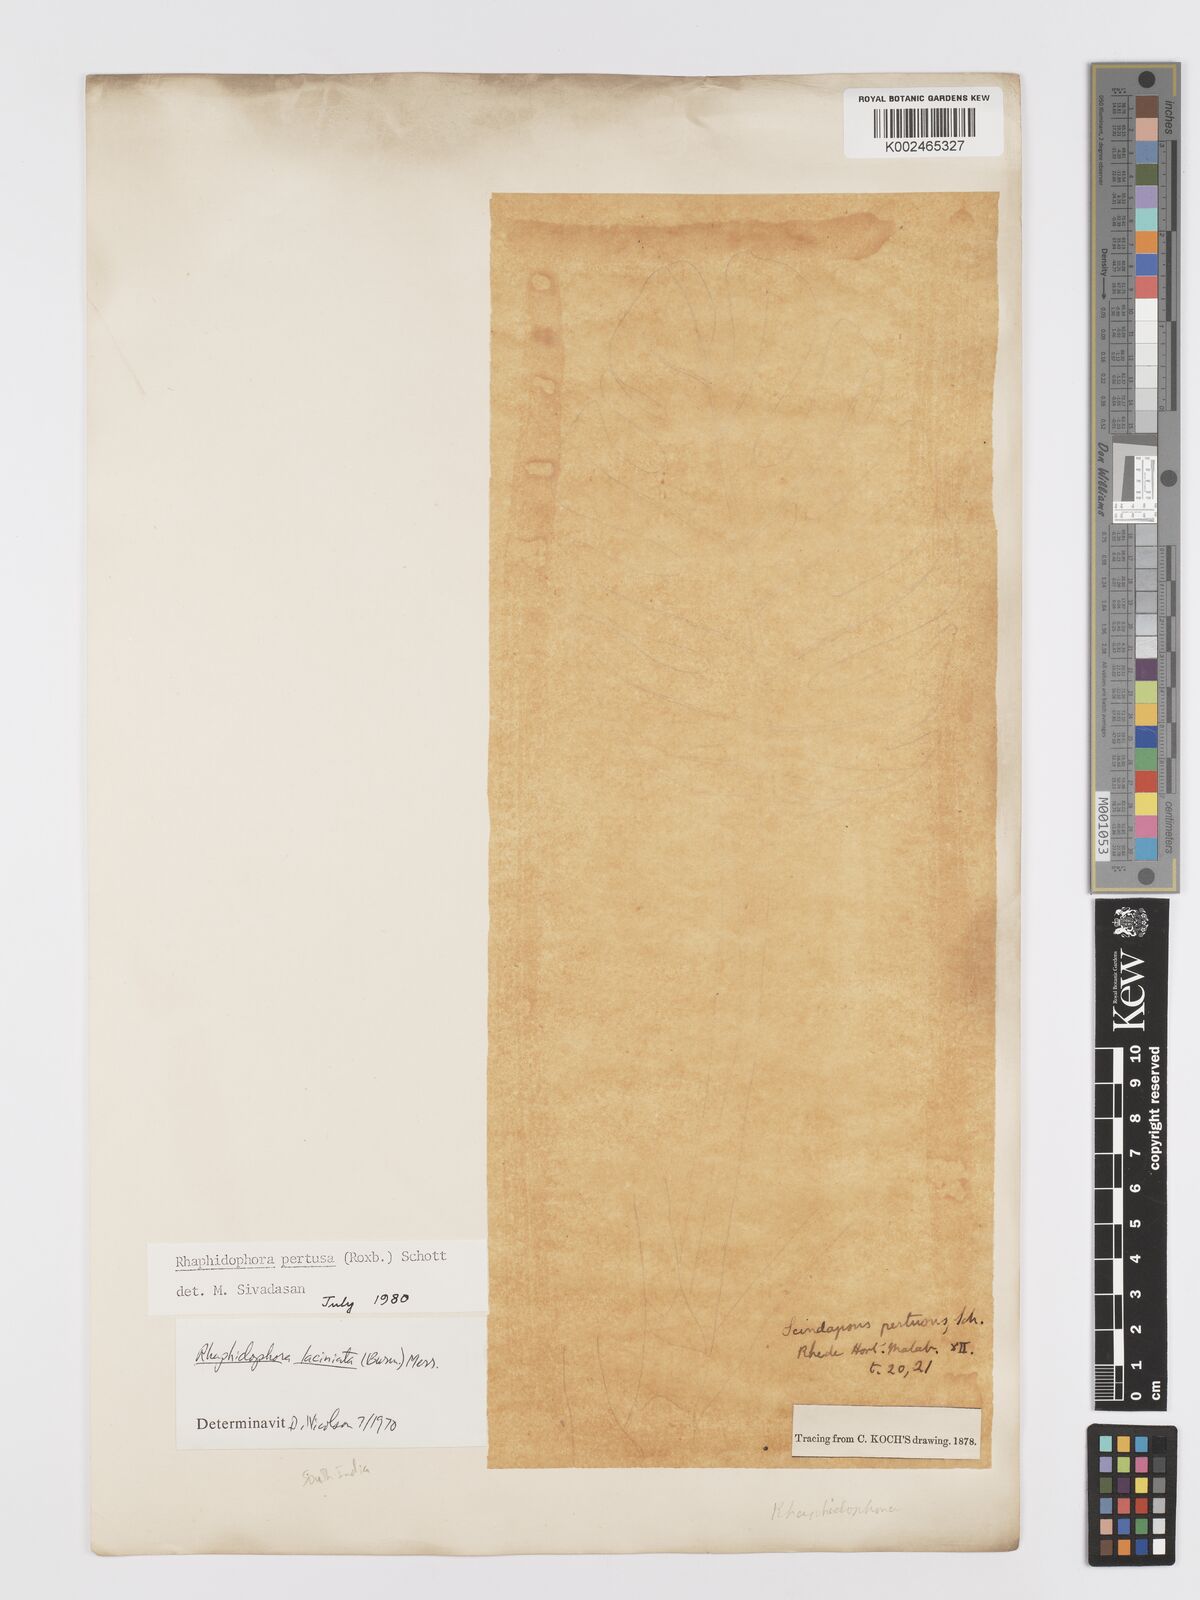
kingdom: Plantae
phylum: Tracheophyta
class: Liliopsida
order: Alismatales
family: Araceae
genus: Rhaphidophora
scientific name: Rhaphidophora pertusa
